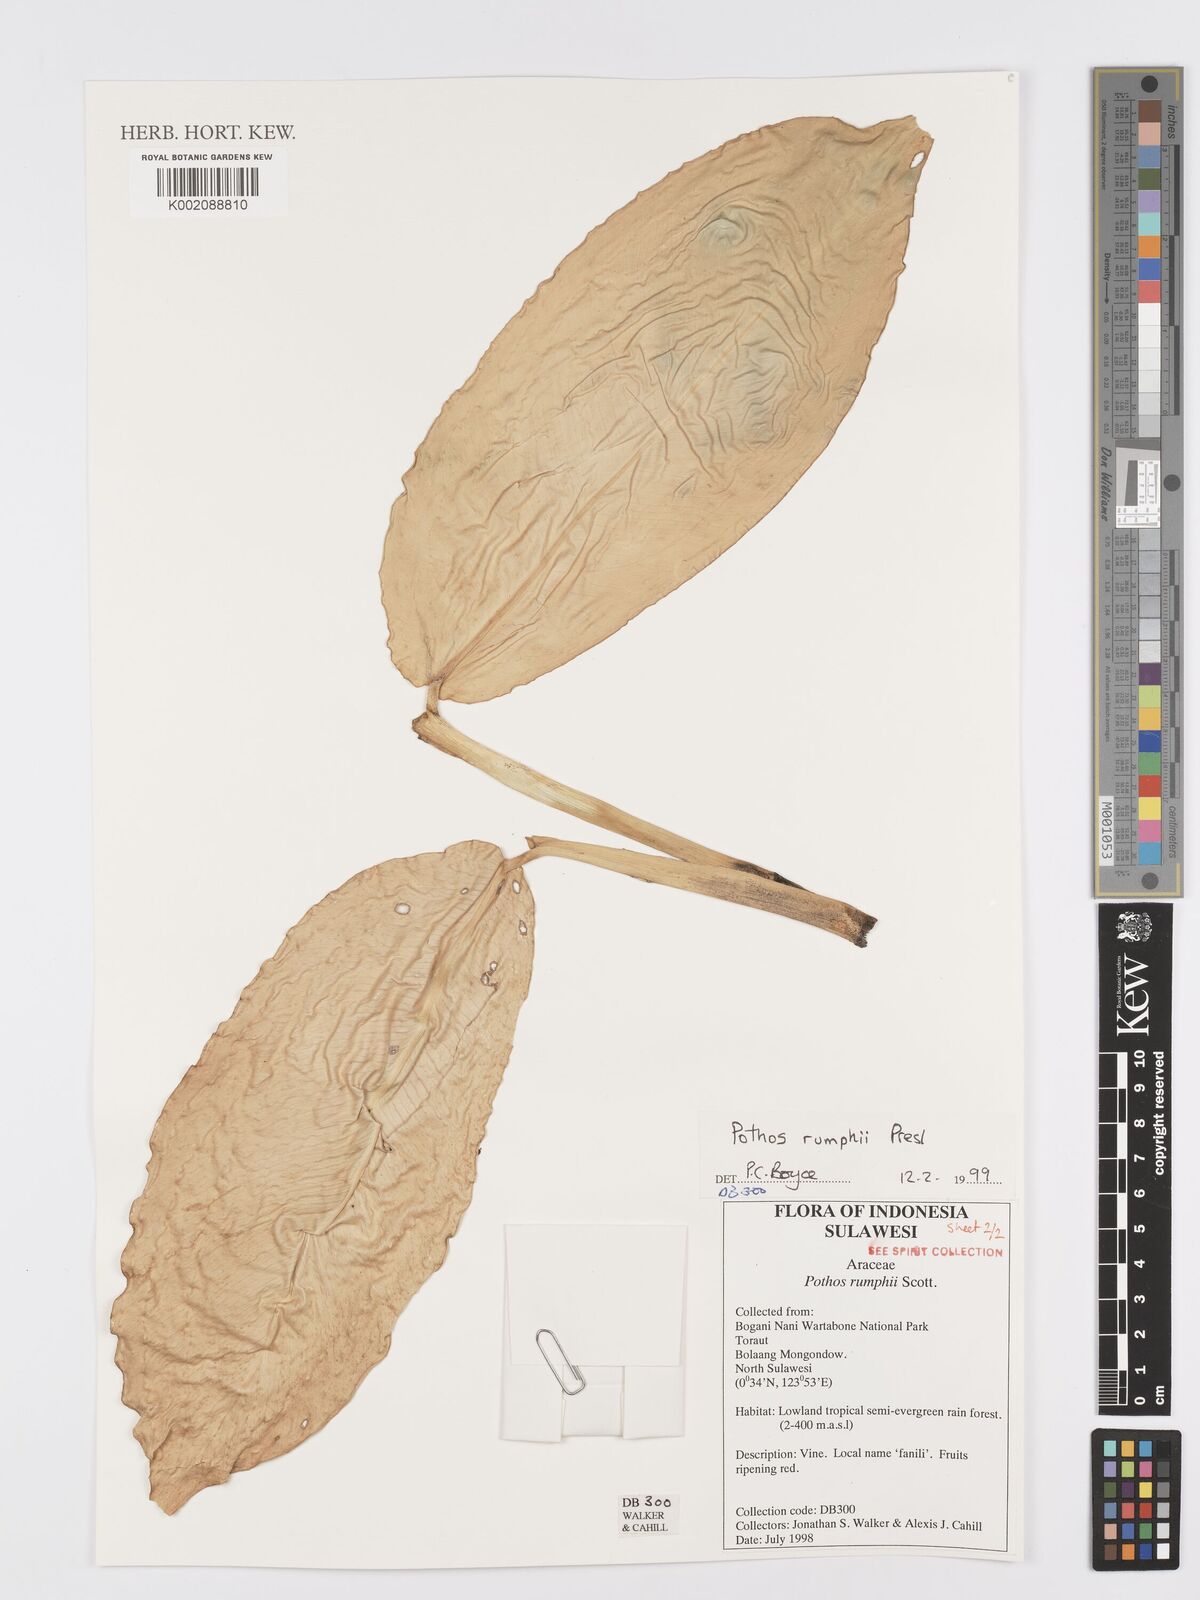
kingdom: Plantae
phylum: Tracheophyta
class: Liliopsida
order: Alismatales
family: Araceae
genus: Pothos
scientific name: Pothos tener
